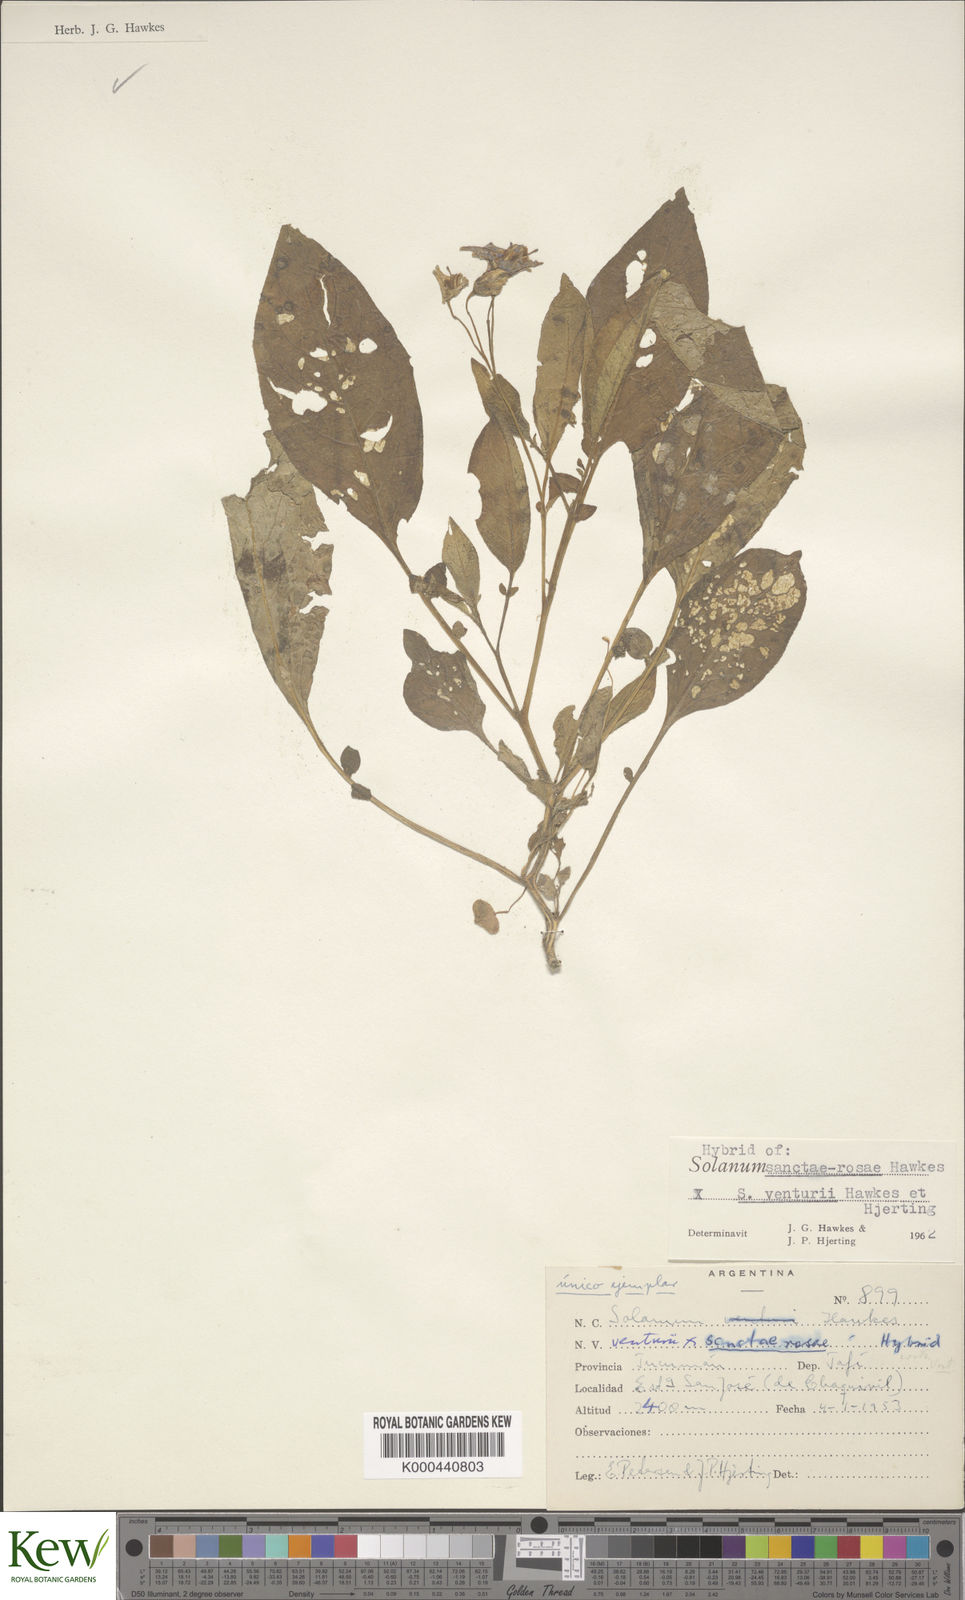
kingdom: Plantae
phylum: Tracheophyta
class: Magnoliopsida
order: Solanales
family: Solanaceae
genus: Solanum
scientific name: Solanum boliviense
